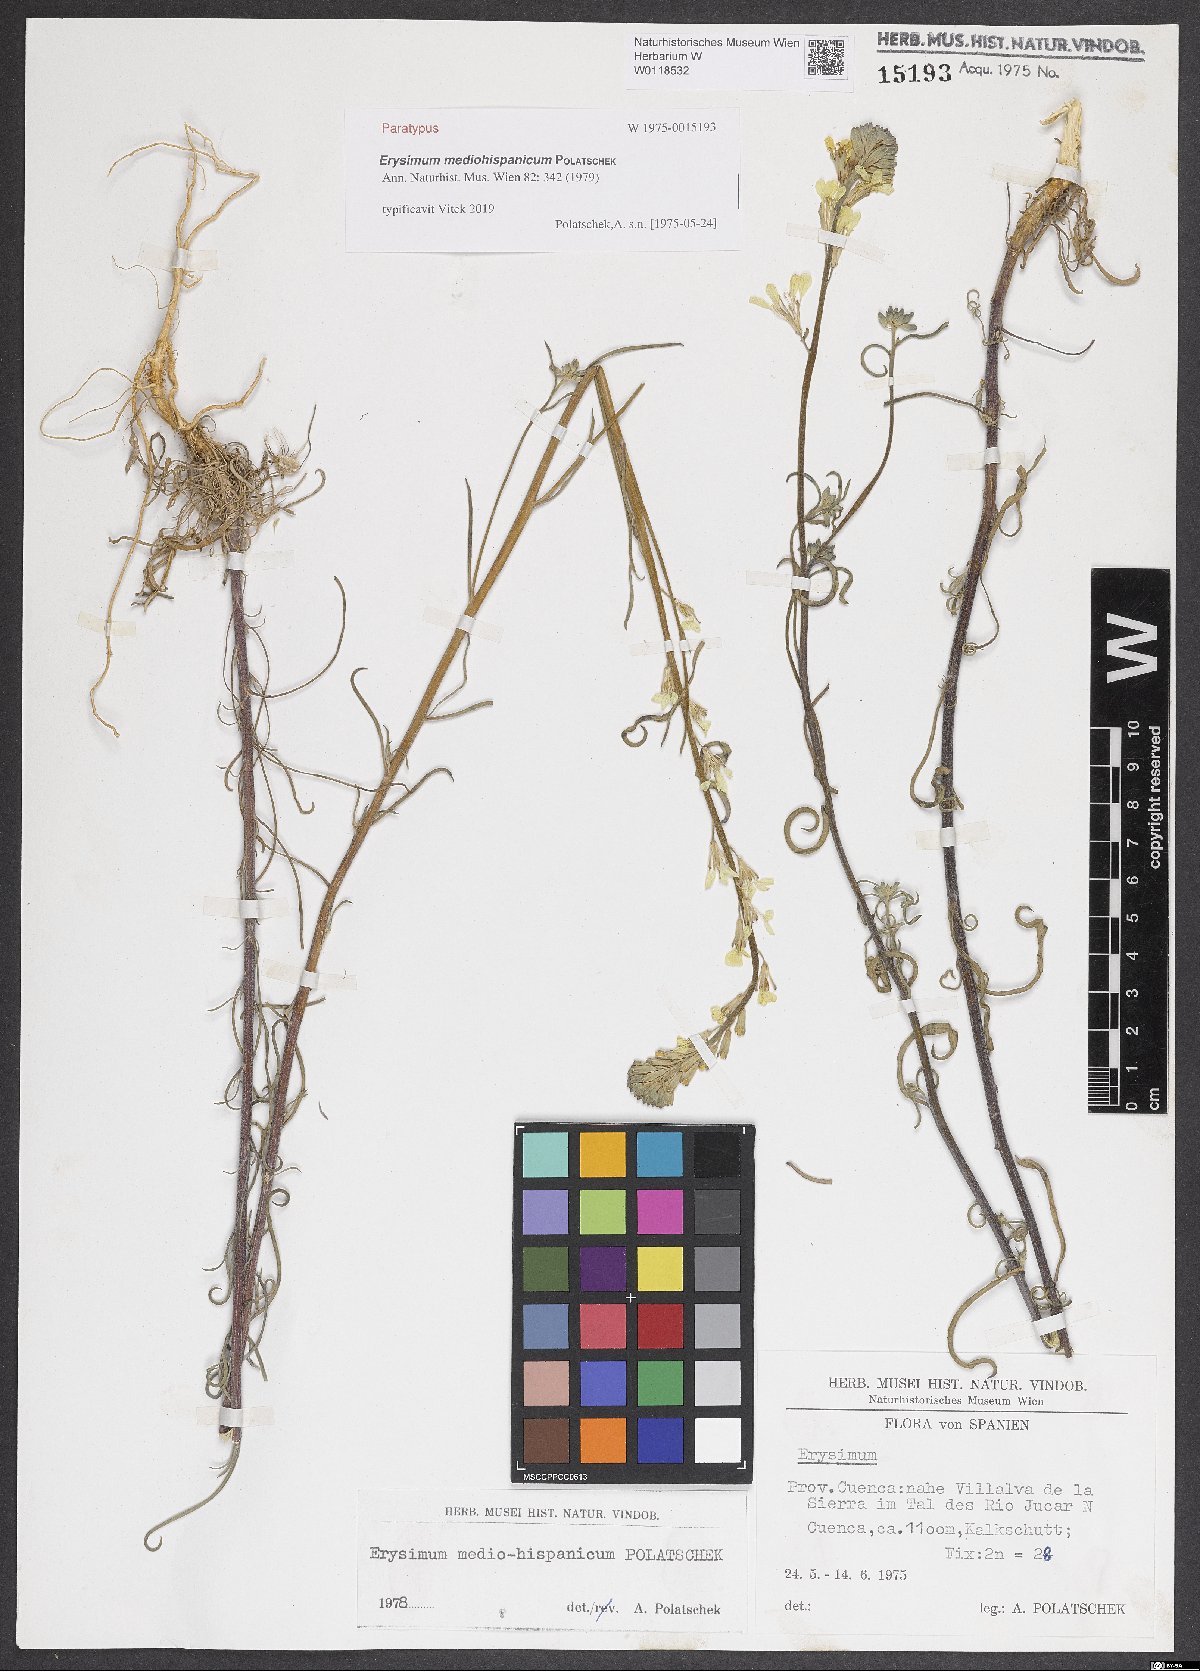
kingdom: Plantae
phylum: Tracheophyta
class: Magnoliopsida
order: Brassicales
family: Brassicaceae
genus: Erysimum
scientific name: Erysimum nevadense
